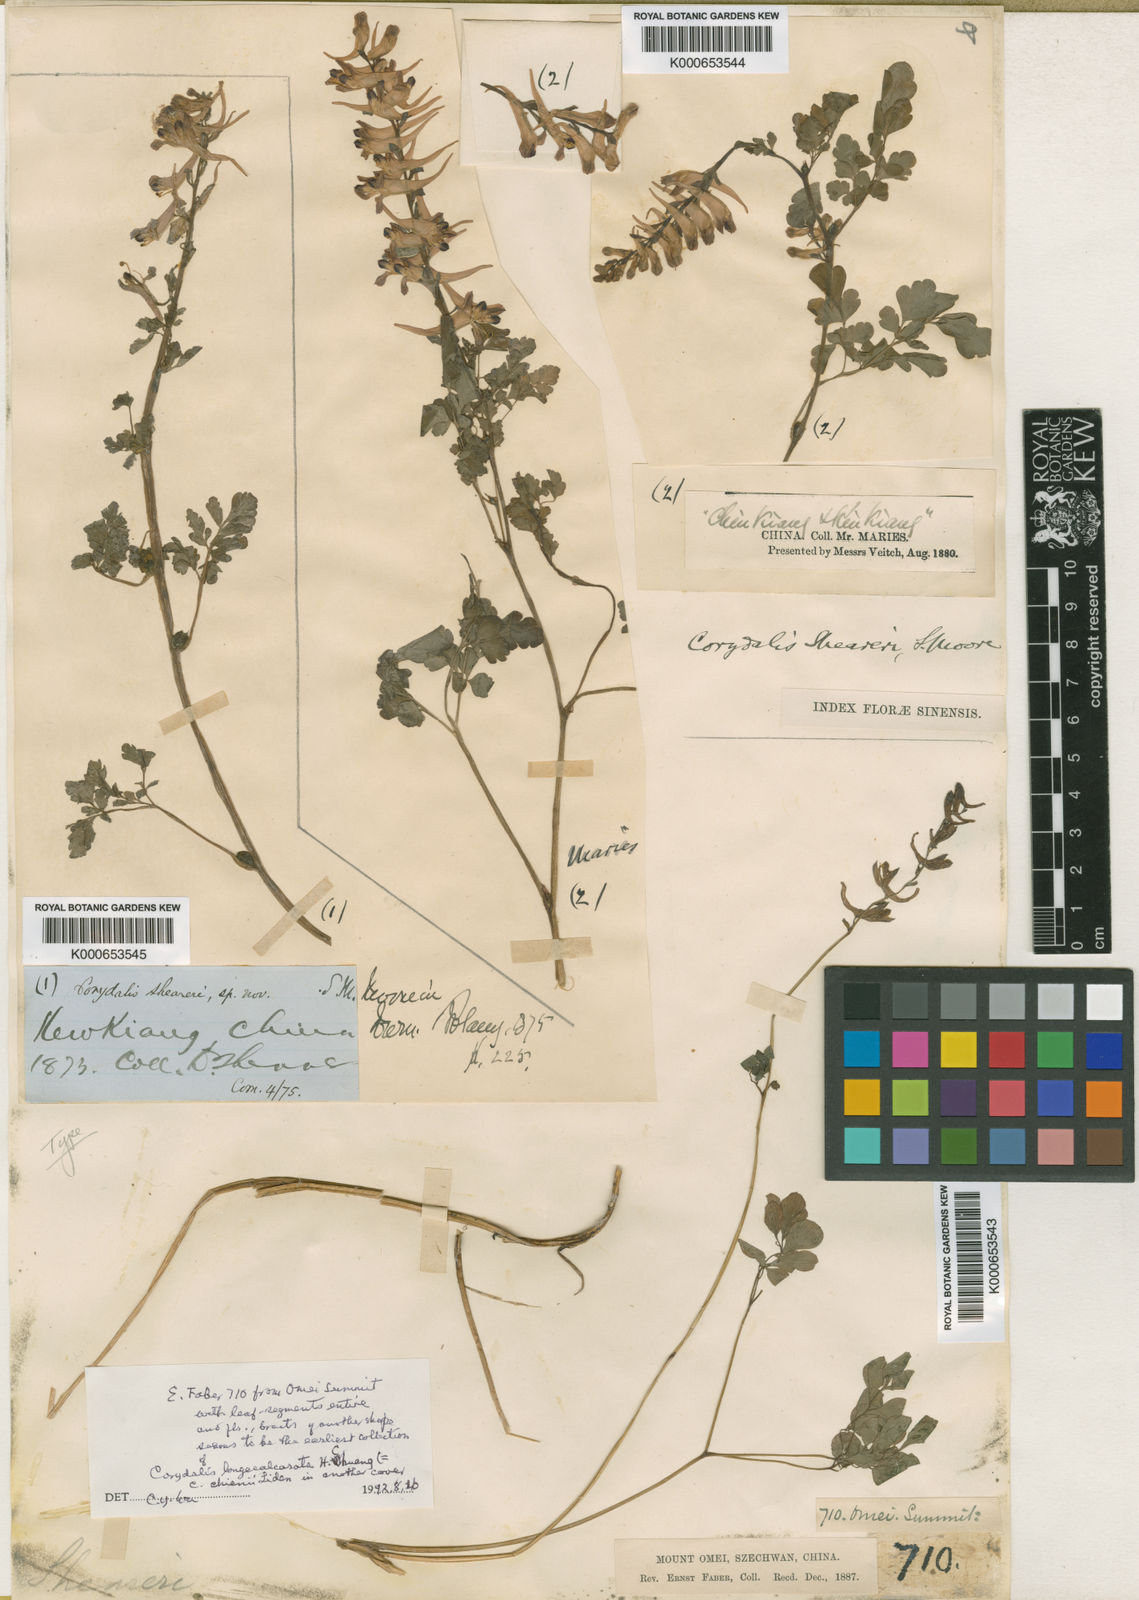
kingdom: Plantae
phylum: Tracheophyta
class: Magnoliopsida
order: Ranunculales
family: Papaveraceae
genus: Corydalis
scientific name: Corydalis sheareri
